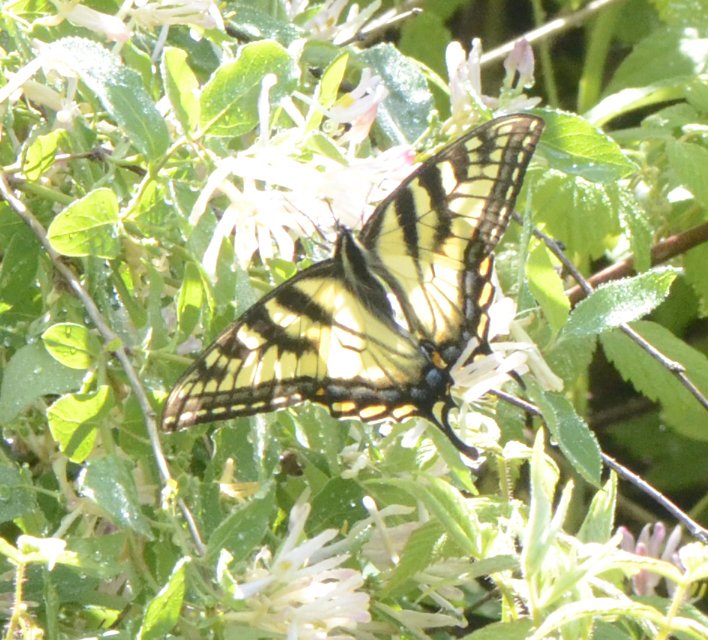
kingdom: Animalia
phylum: Arthropoda
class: Insecta
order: Lepidoptera
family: Papilionidae
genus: Pterourus
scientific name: Pterourus canadensis
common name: Canadian Tiger Swallowtail
